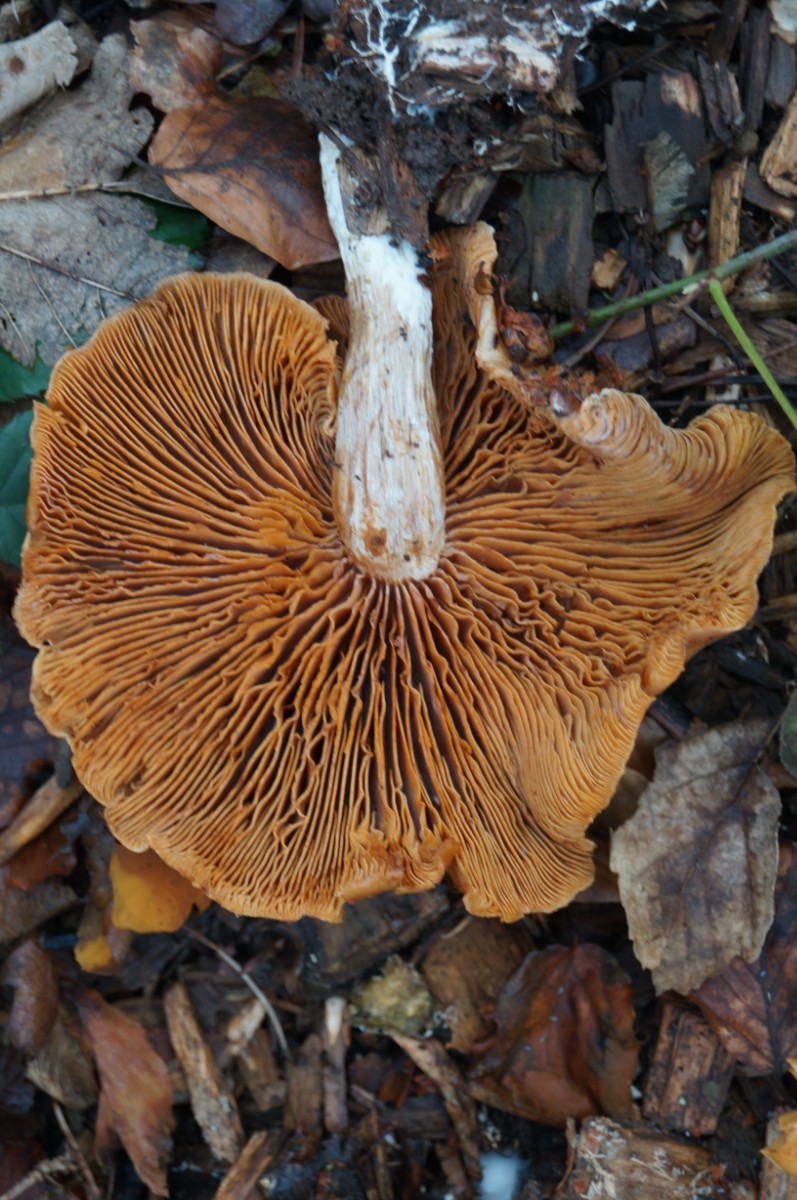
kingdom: Fungi
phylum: Basidiomycota
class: Agaricomycetes
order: Agaricales
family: Cortinariaceae
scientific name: Cortinariaceae
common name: slørhatfamilien
